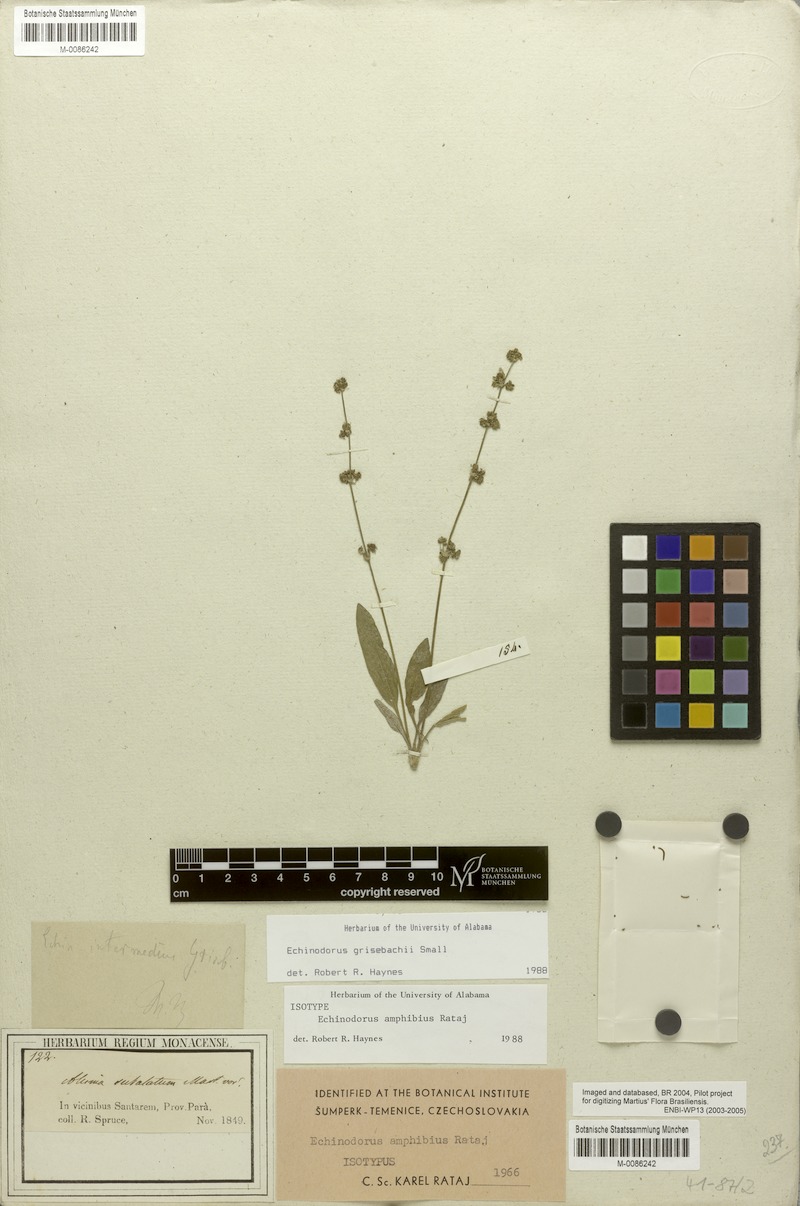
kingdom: Plantae
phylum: Tracheophyta
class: Liliopsida
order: Alismatales
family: Alismataceae
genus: Aquarius
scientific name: Aquarius grisebachii
